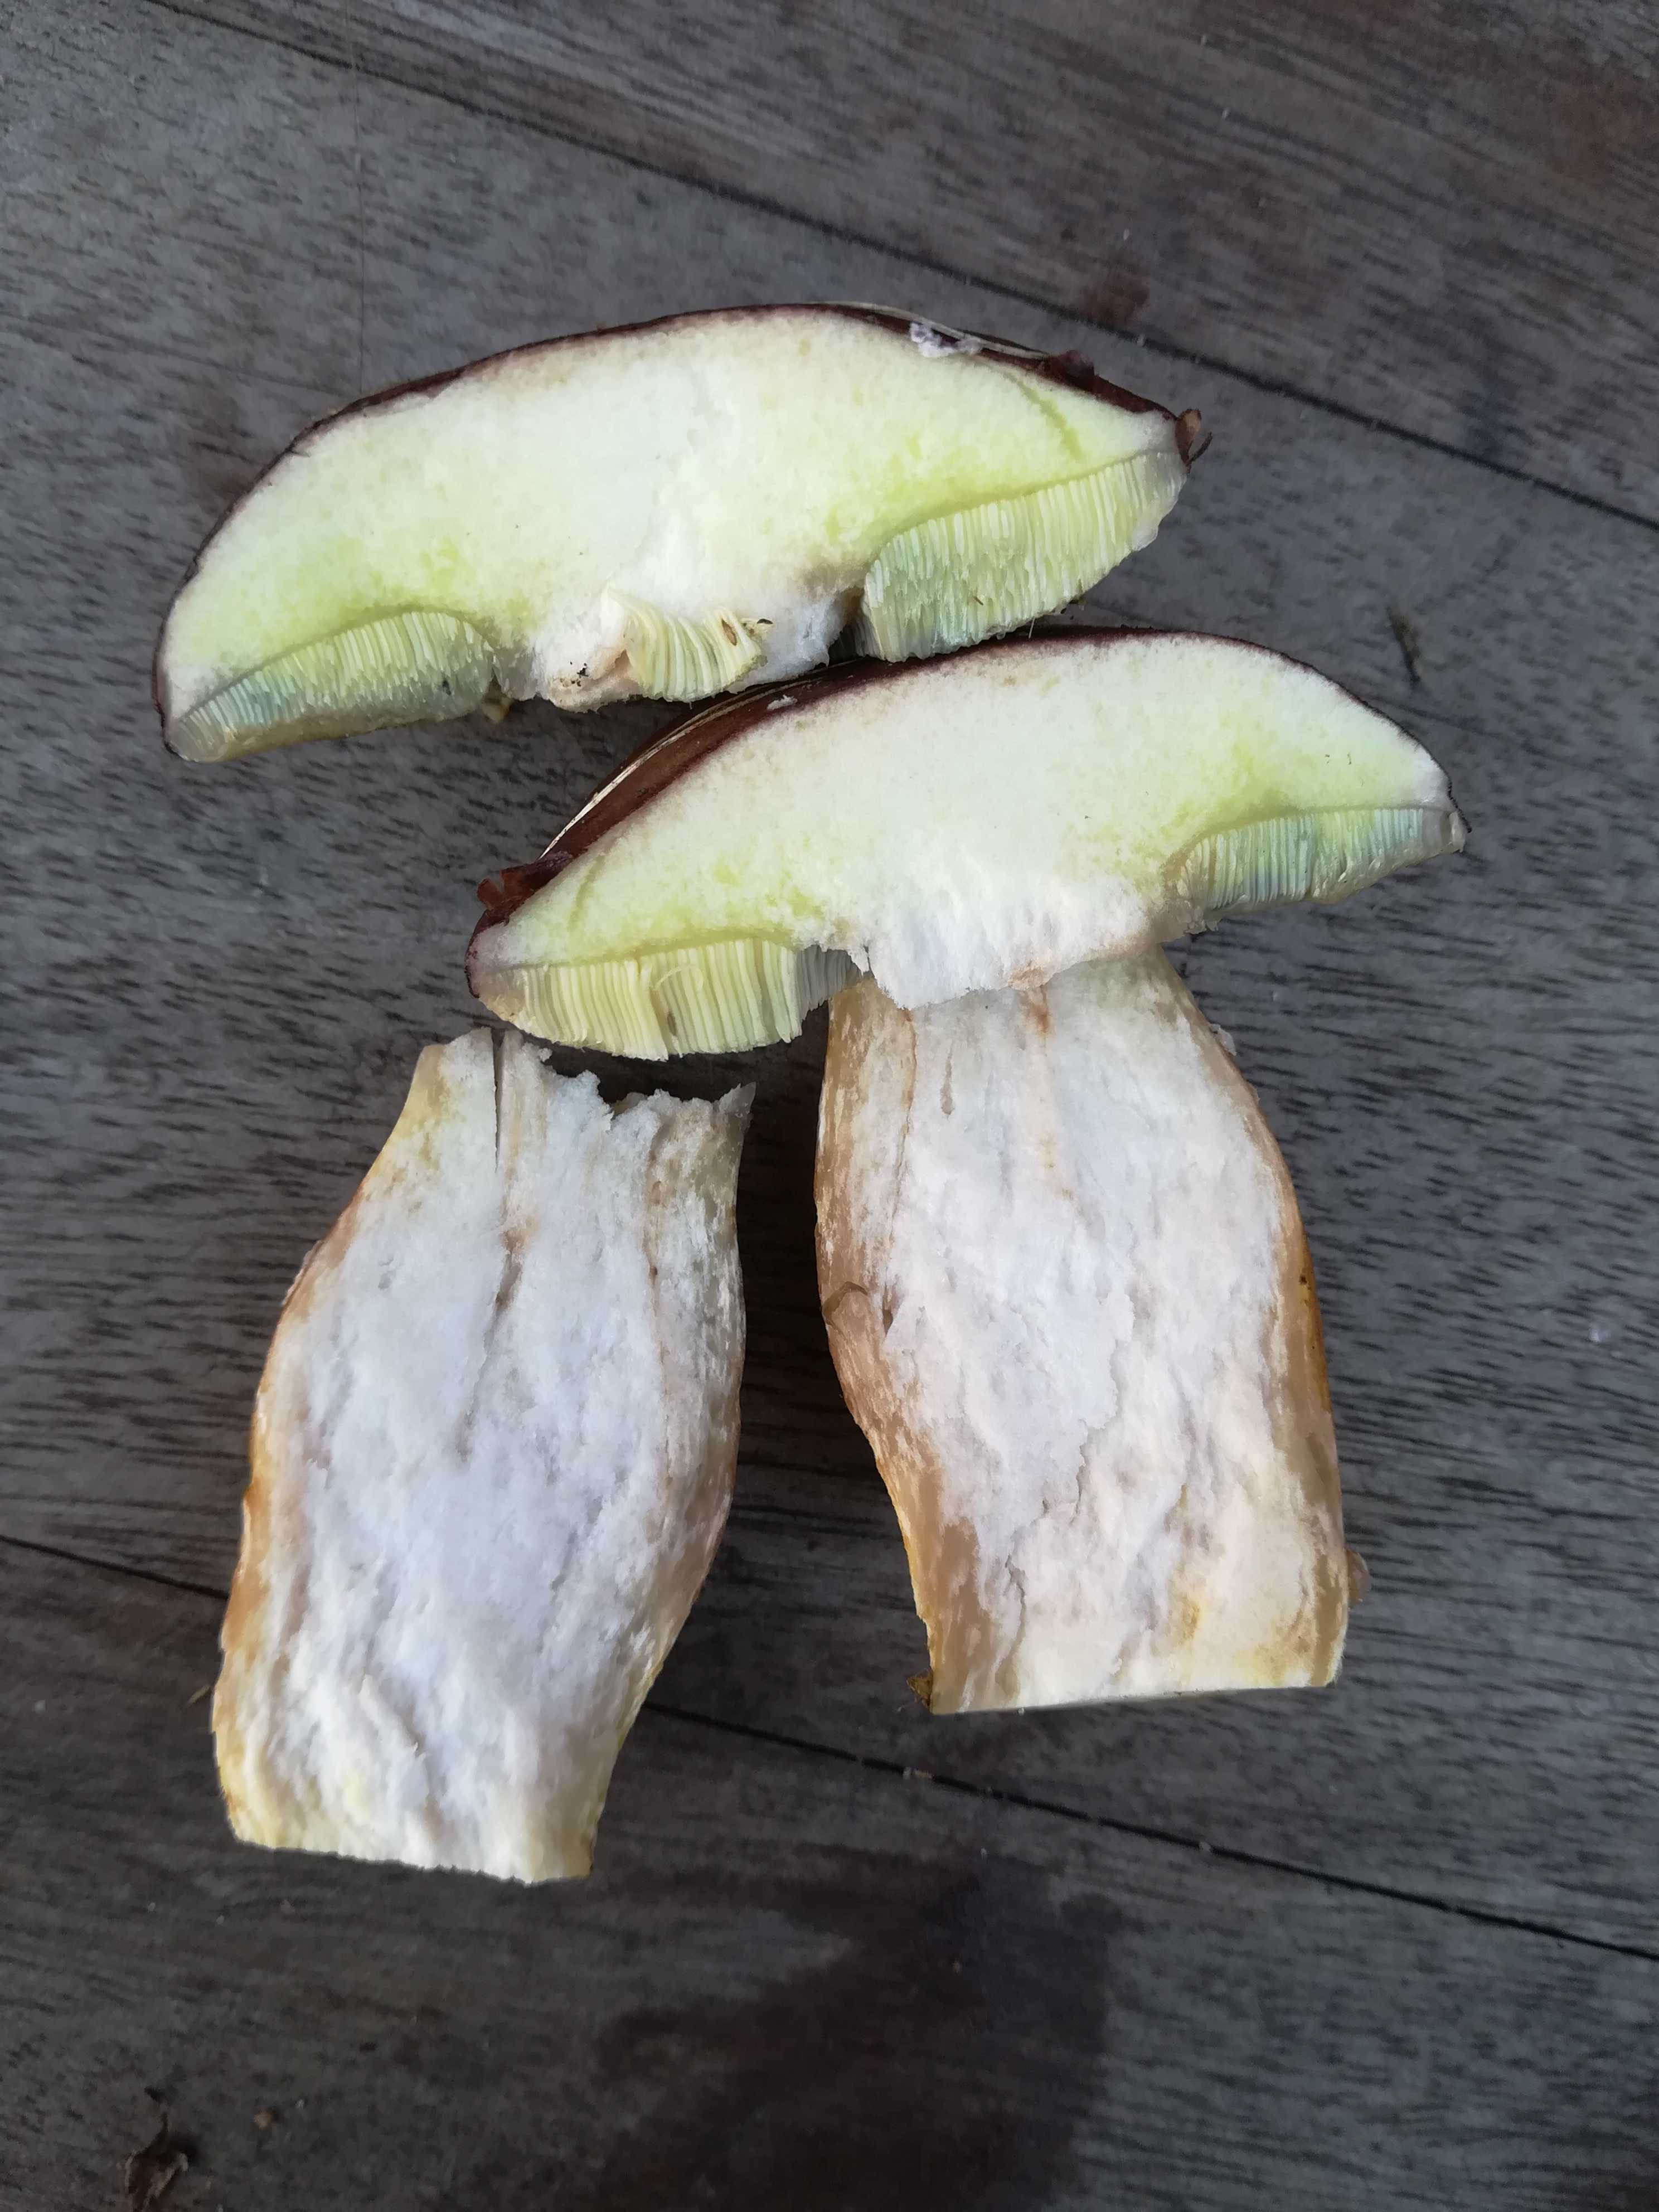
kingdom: Fungi
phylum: Basidiomycota
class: Agaricomycetes
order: Boletales
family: Boletaceae
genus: Imleria
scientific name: Imleria badia
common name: brunstokket rørhat
